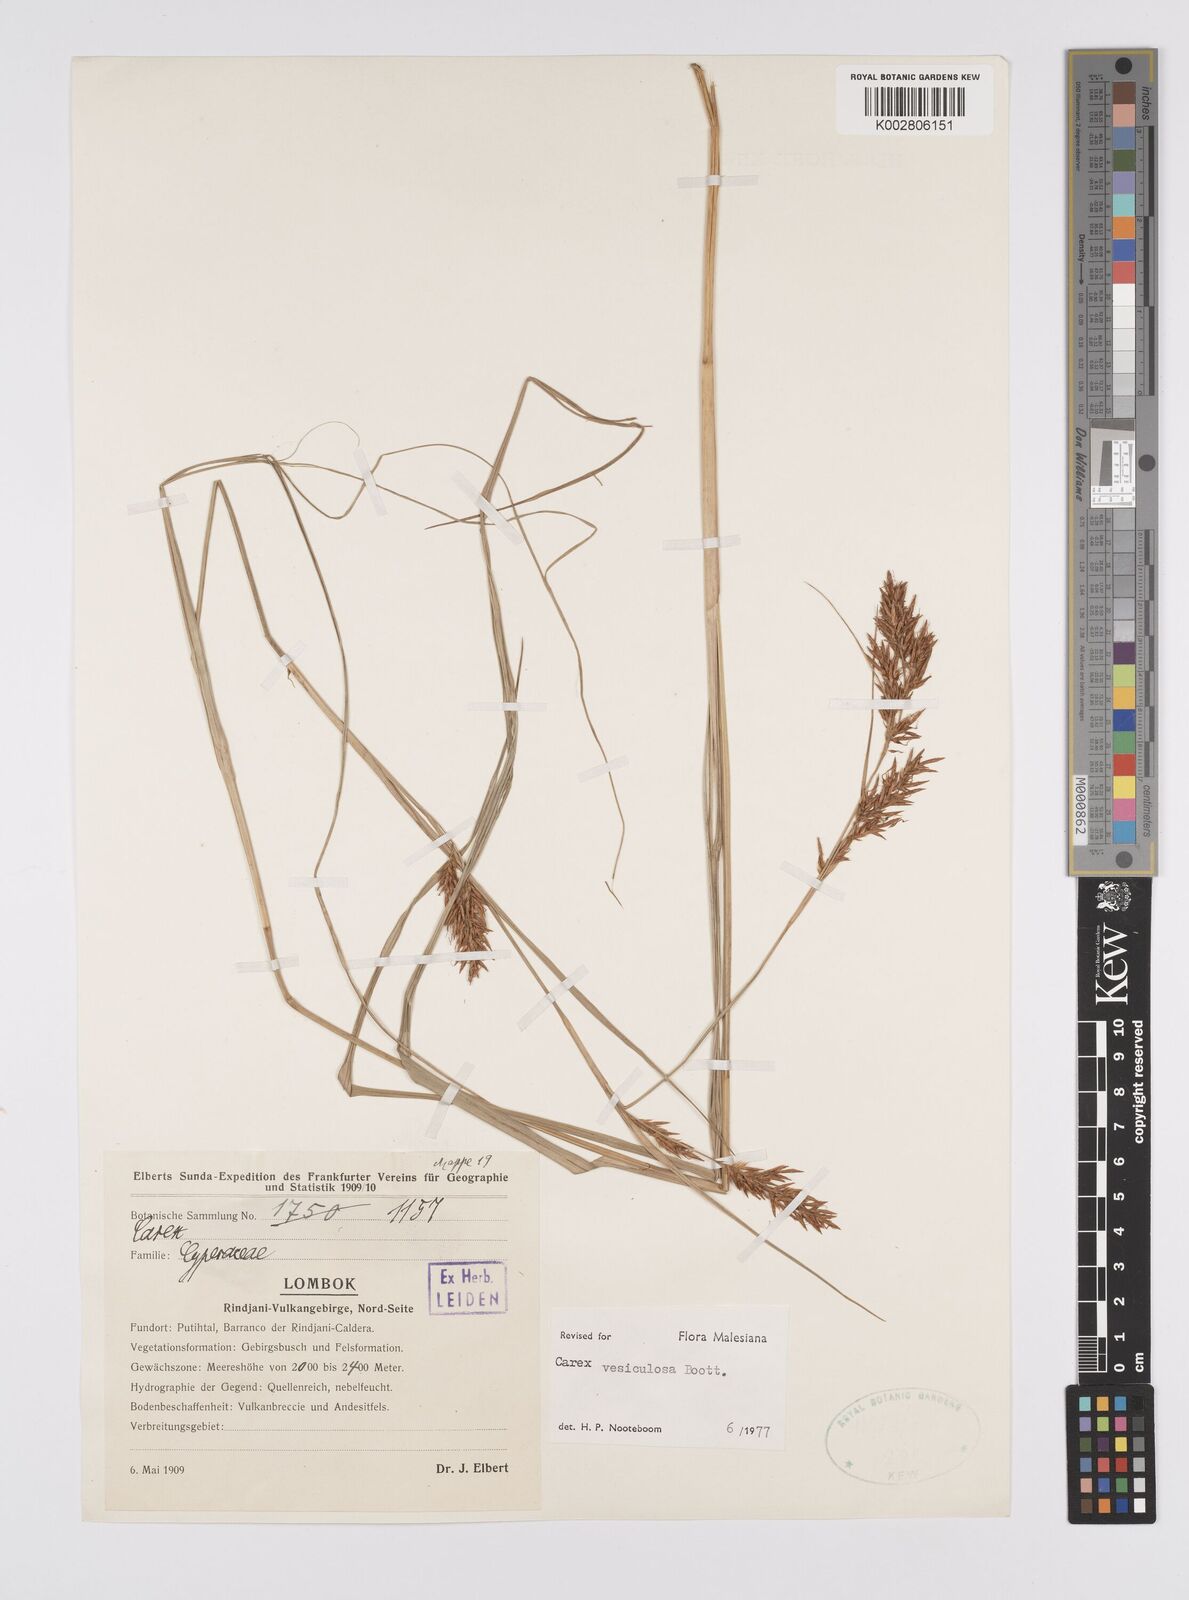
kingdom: Plantae
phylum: Tracheophyta
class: Liliopsida
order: Poales
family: Cyperaceae
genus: Carex
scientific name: Carex vesiculosa
